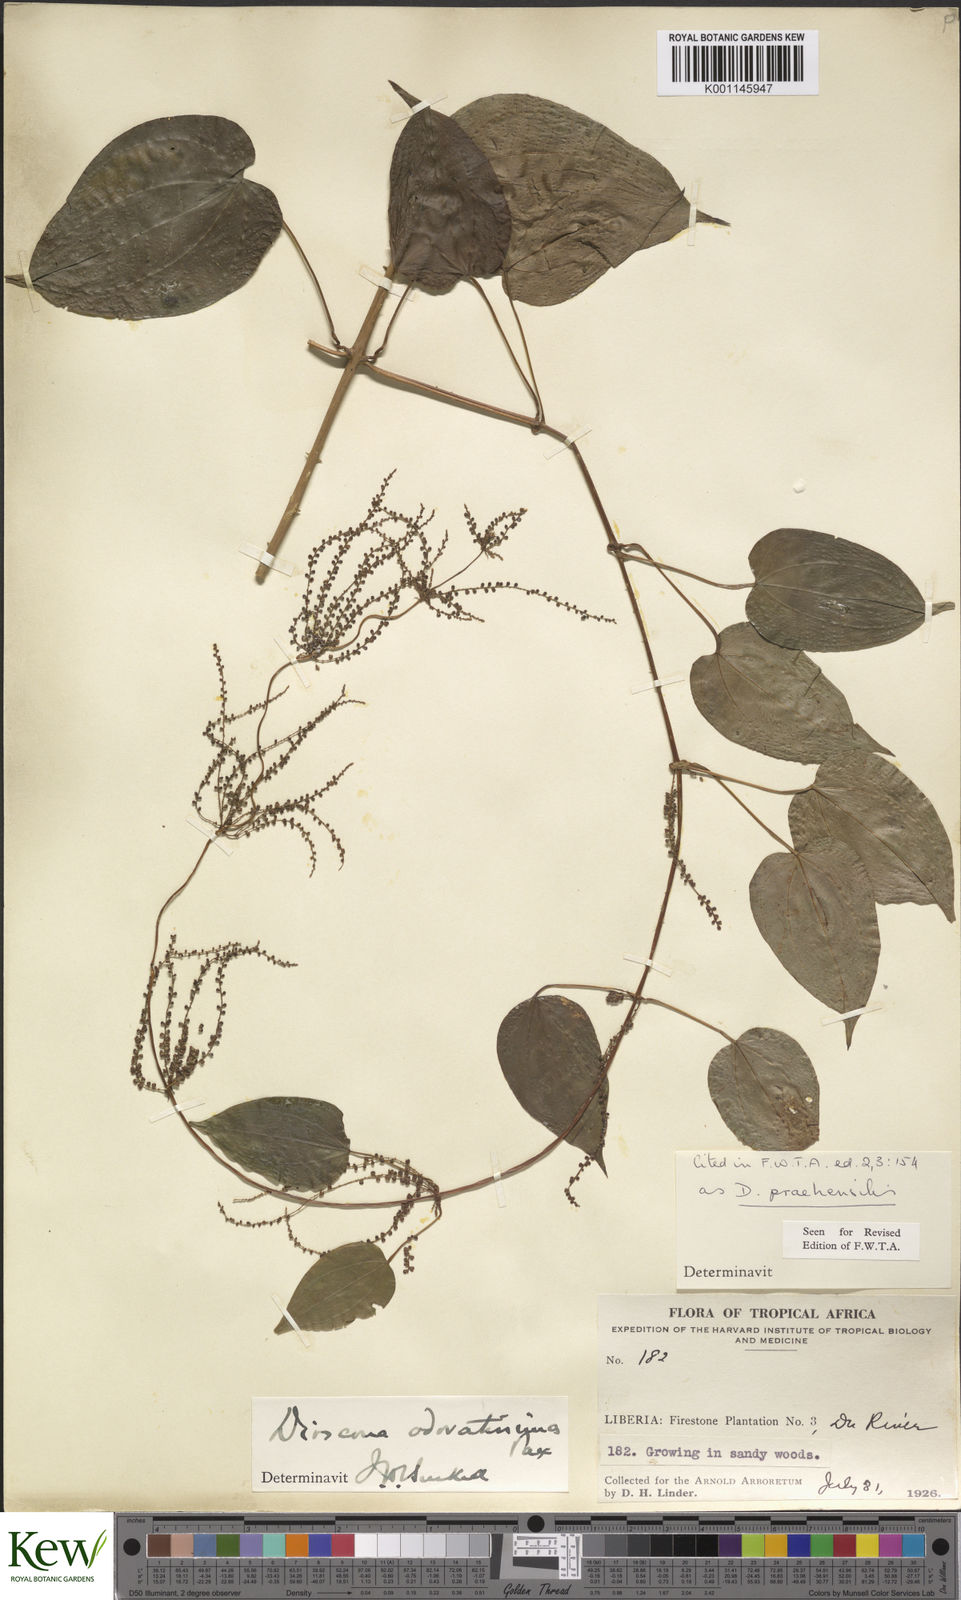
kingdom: Plantae
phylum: Tracheophyta
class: Liliopsida
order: Dioscoreales
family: Dioscoreaceae
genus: Dioscorea
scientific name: Dioscorea praehensilis
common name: Bush yam
